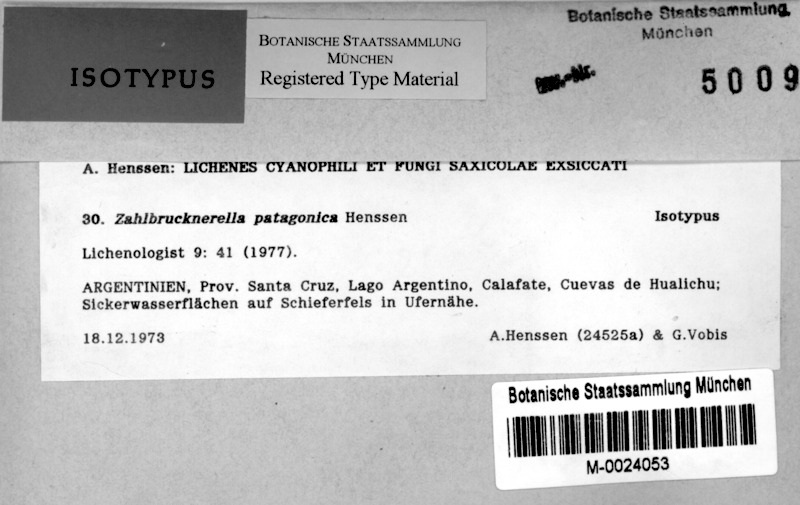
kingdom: Fungi
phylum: Ascomycota
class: Lichinomycetes
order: Lichinales
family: Lichinaceae
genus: Zahlbrucknerella
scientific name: Zahlbrucknerella patagonica
